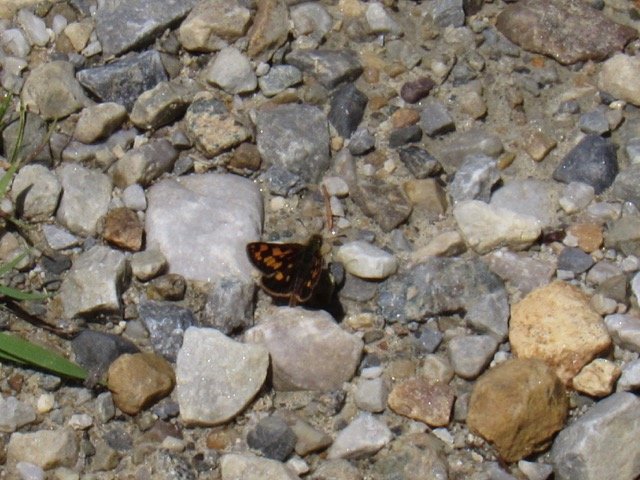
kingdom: Animalia
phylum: Arthropoda
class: Insecta
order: Lepidoptera
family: Hesperiidae
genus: Carterocephalus
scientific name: Carterocephalus palaemon
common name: Chequered Skipper
